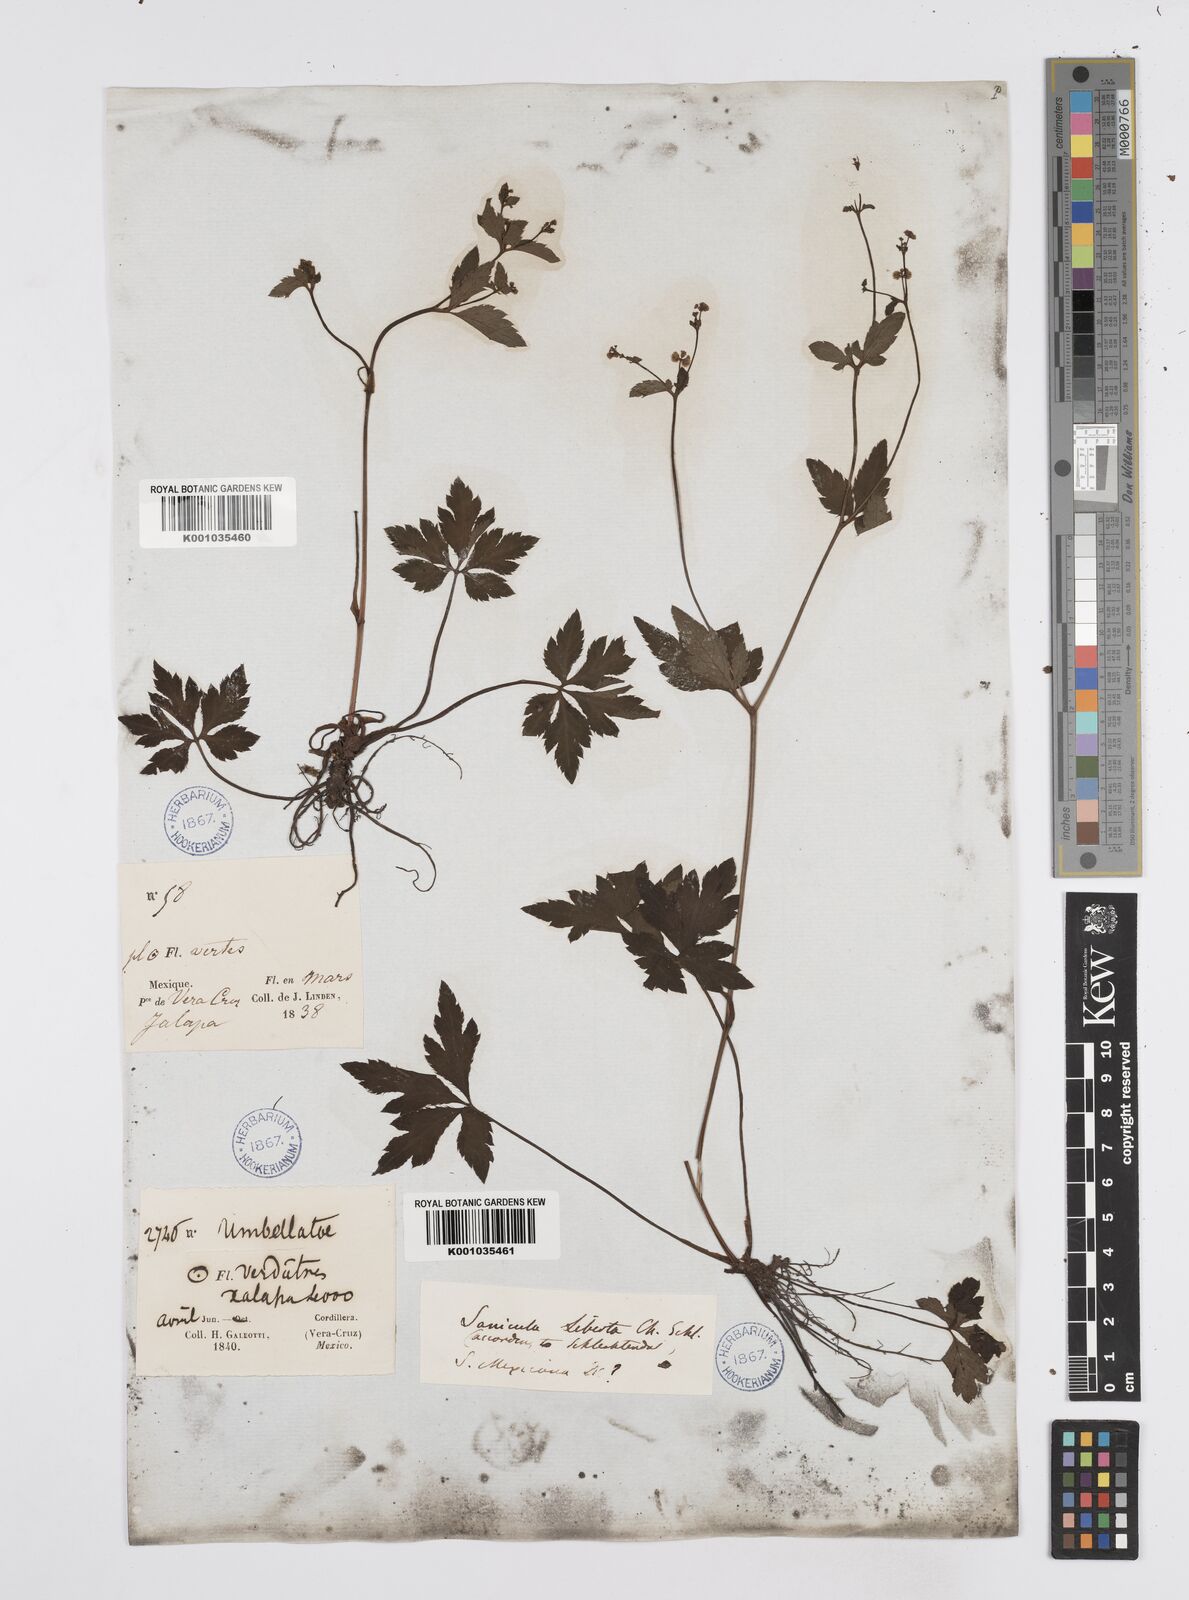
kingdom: Plantae
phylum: Tracheophyta
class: Magnoliopsida
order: Apiales
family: Apiaceae
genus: Sanicula
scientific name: Sanicula liberta
